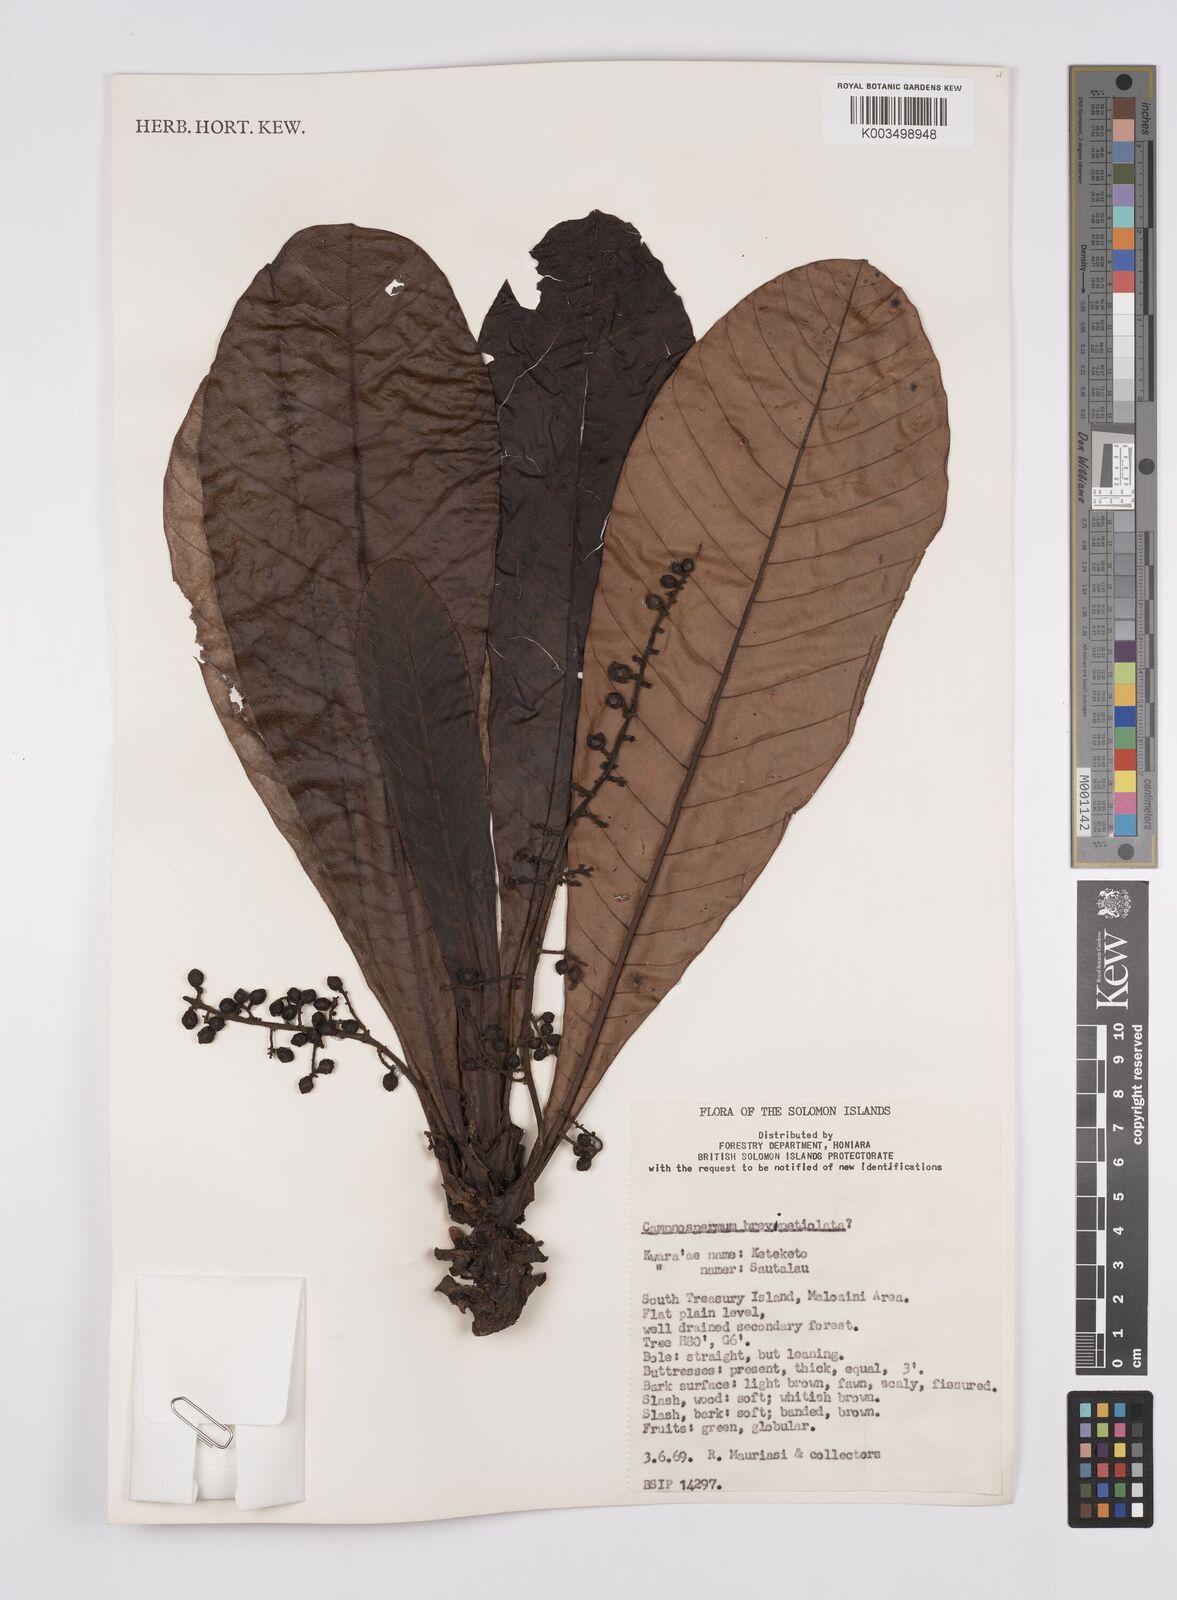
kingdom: Plantae
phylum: Tracheophyta
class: Magnoliopsida
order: Sapindales
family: Anacardiaceae
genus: Campnosperma
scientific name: Campnosperma brevipetiolatum
